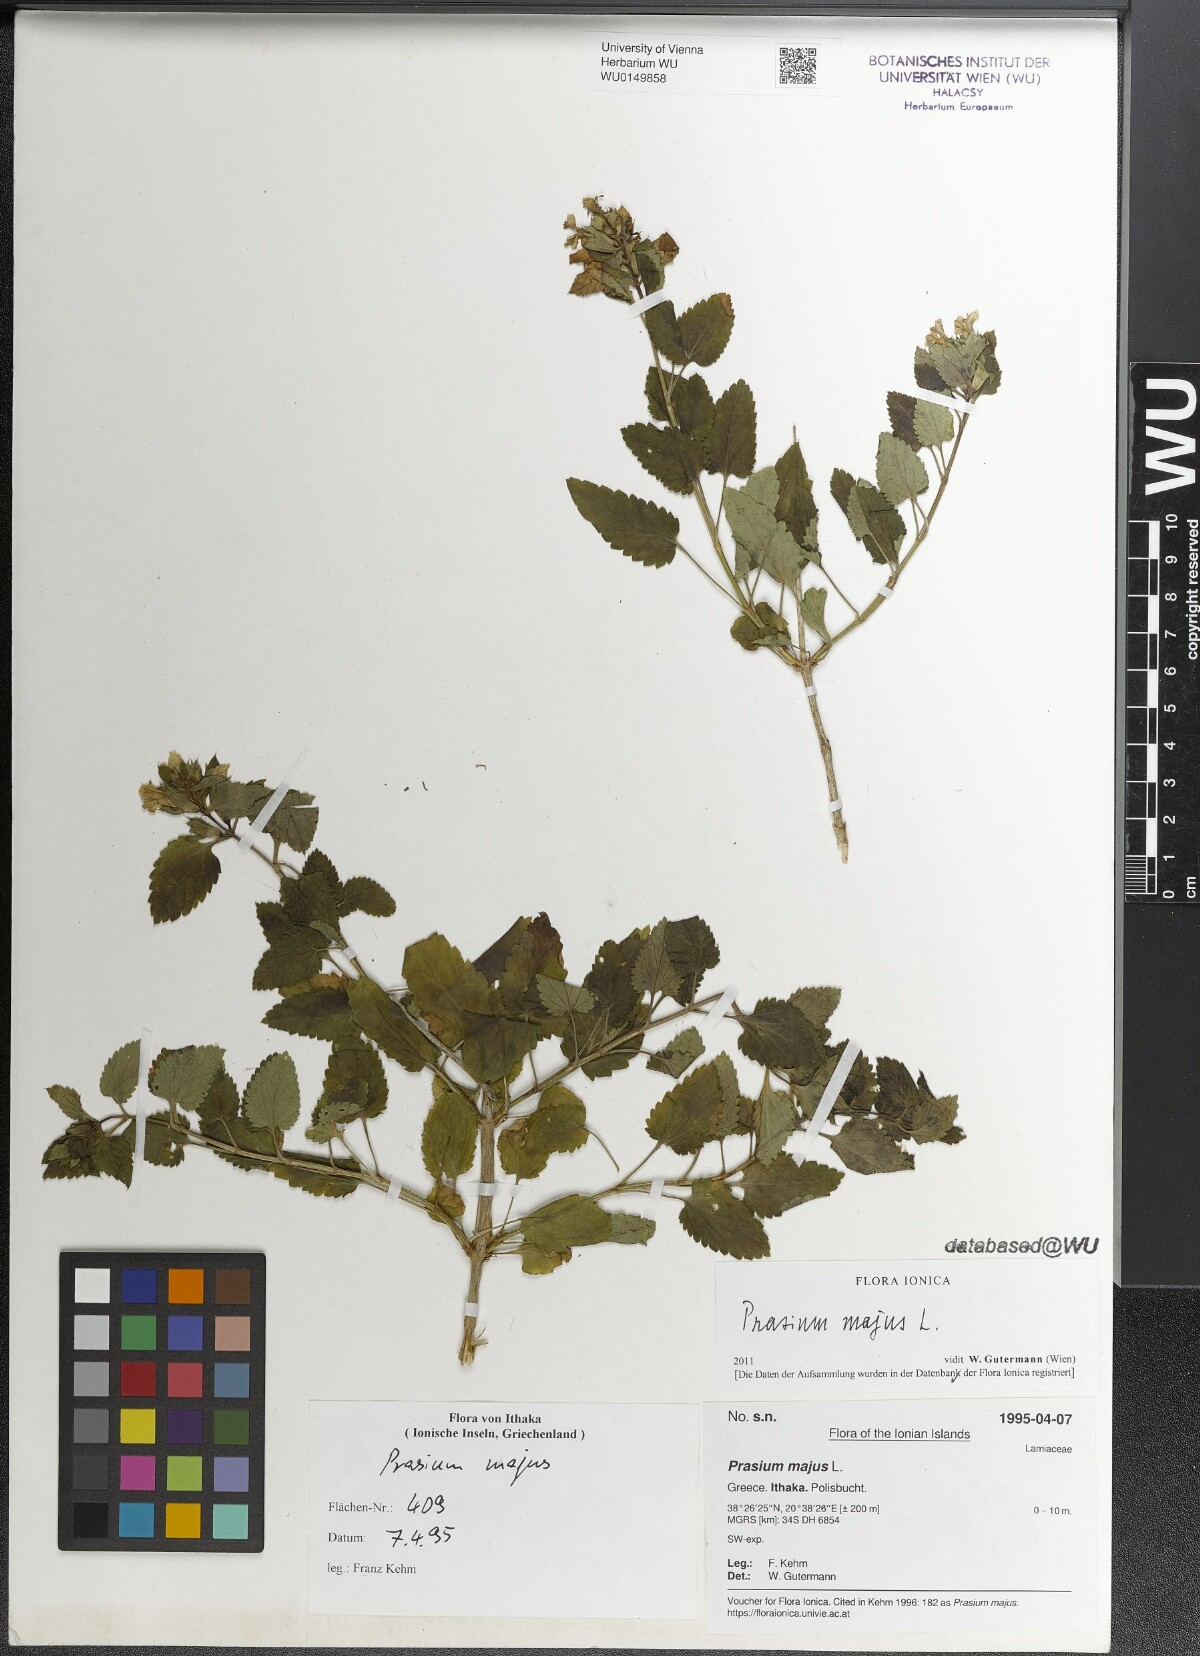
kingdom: Plantae
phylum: Tracheophyta
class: Magnoliopsida
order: Lamiales
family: Lamiaceae
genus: Prasium
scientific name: Prasium majus
